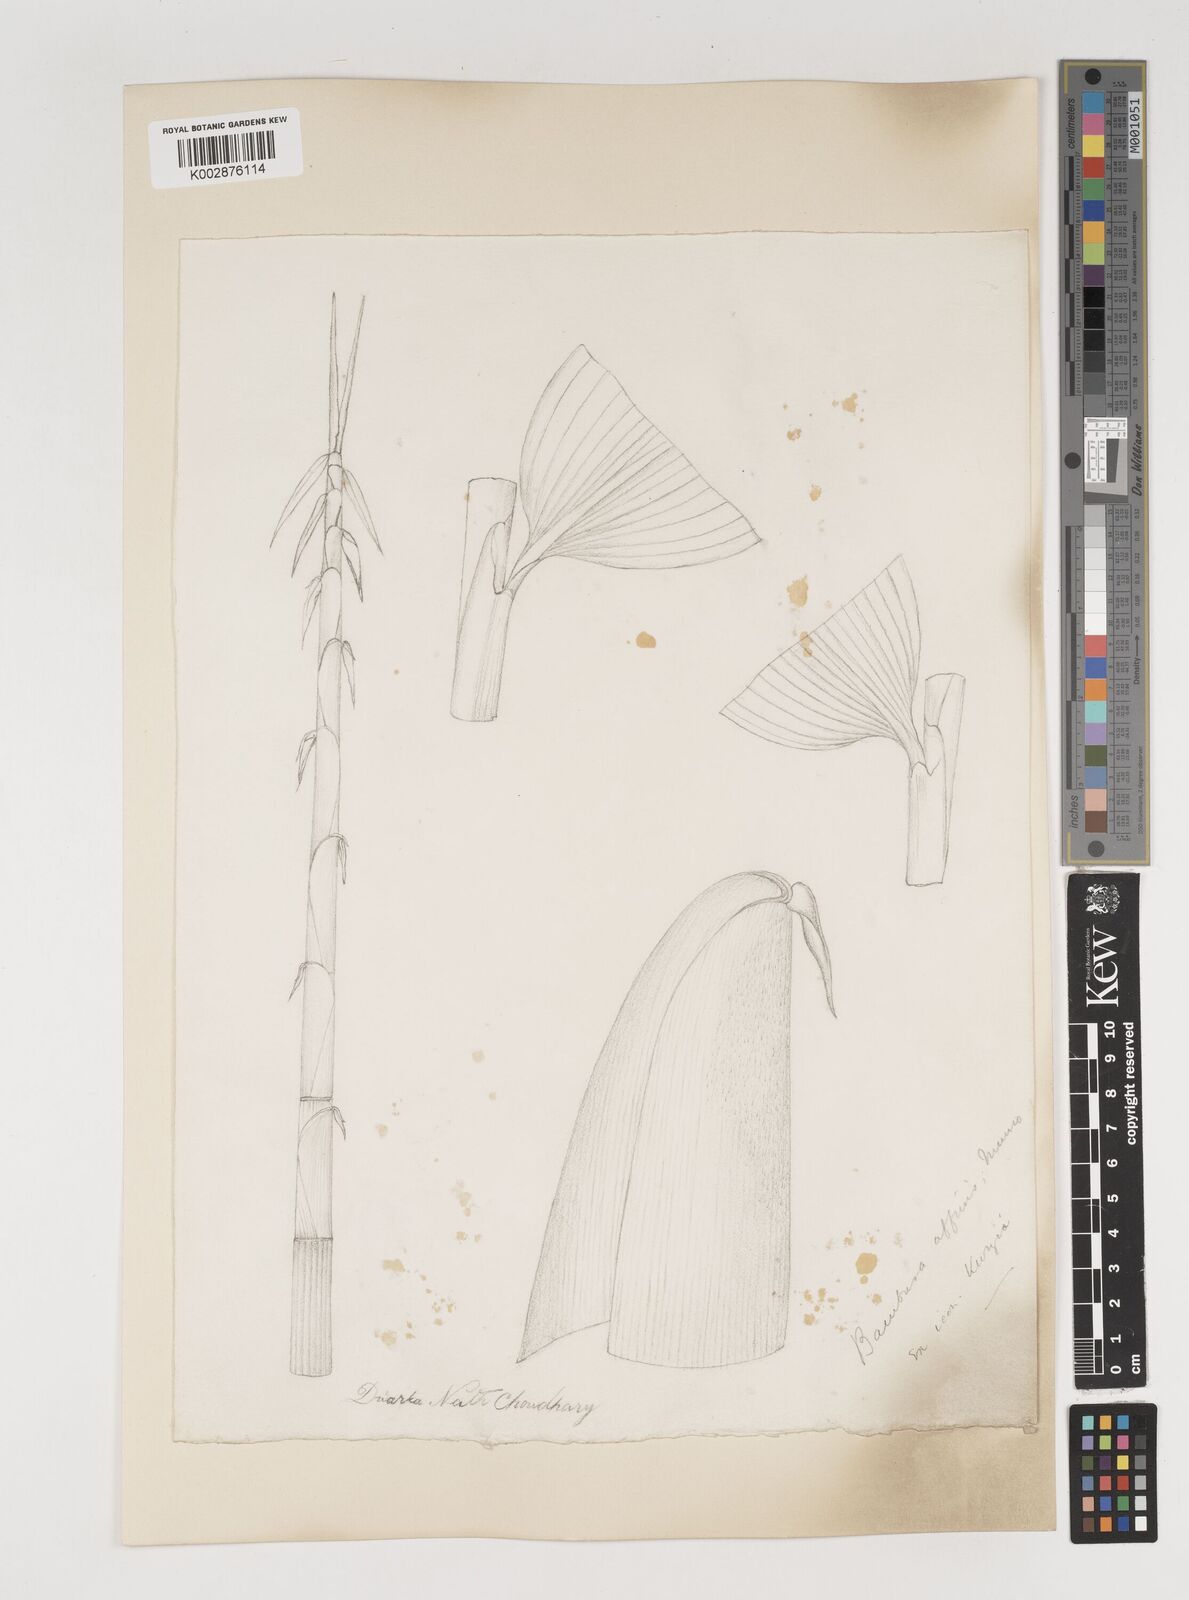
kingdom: Plantae
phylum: Tracheophyta
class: Liliopsida
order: Poales
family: Poaceae
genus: Bambusa
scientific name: Bambusa affinis
